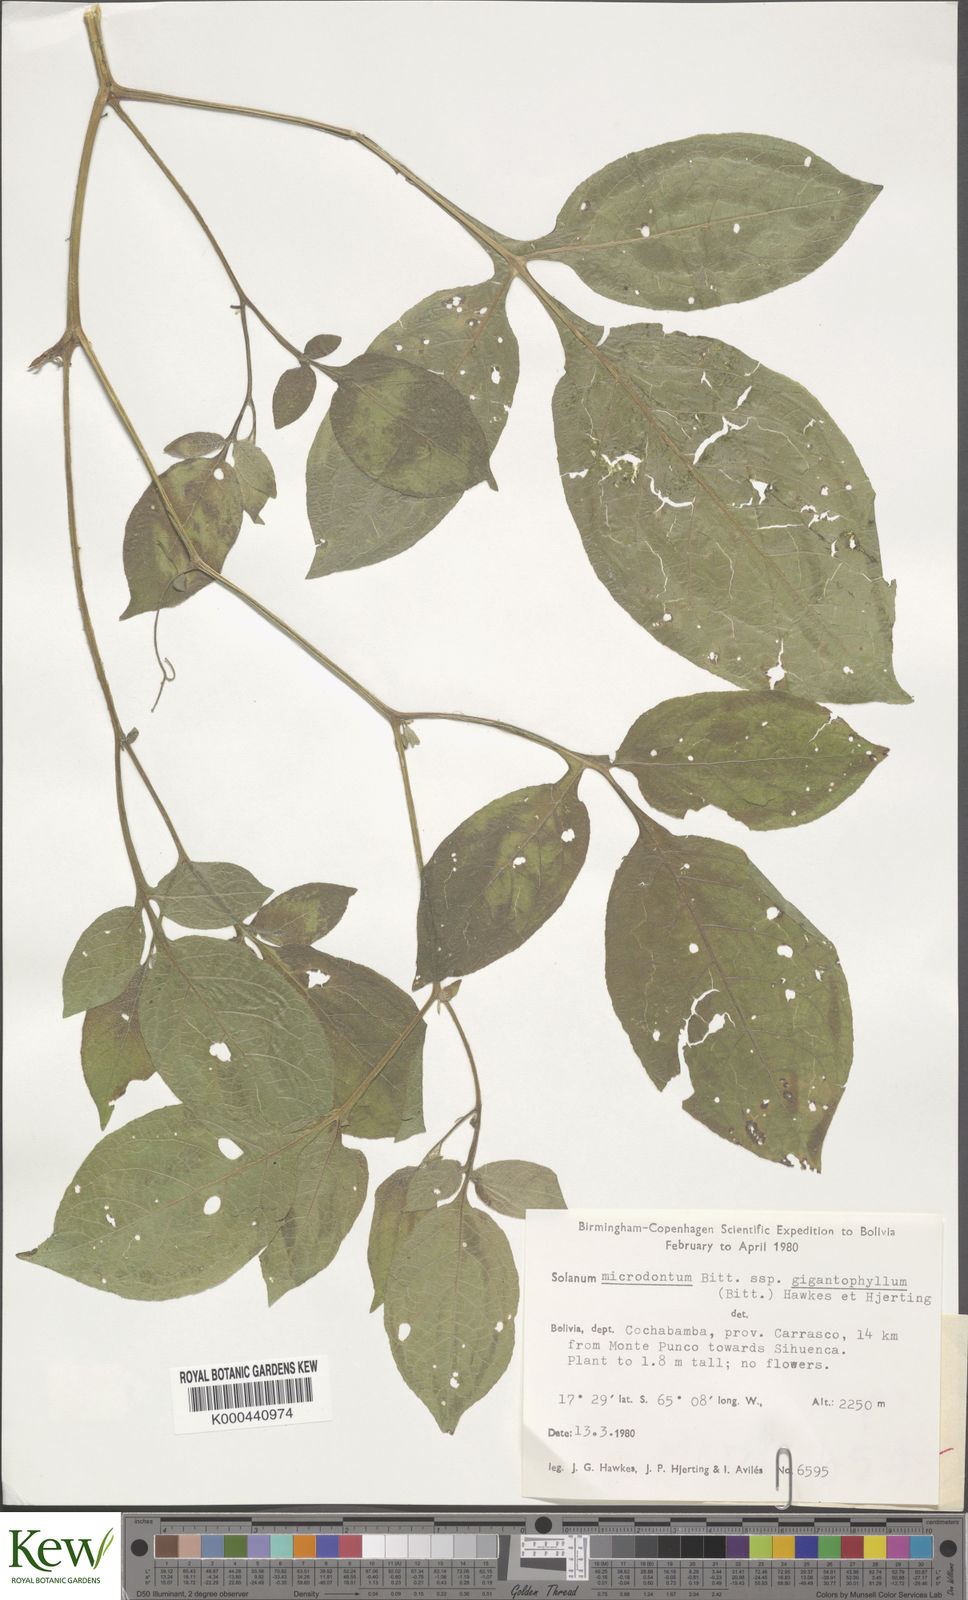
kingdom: Plantae
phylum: Tracheophyta
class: Magnoliopsida
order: Solanales
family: Solanaceae
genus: Solanum
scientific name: Solanum microdontum
